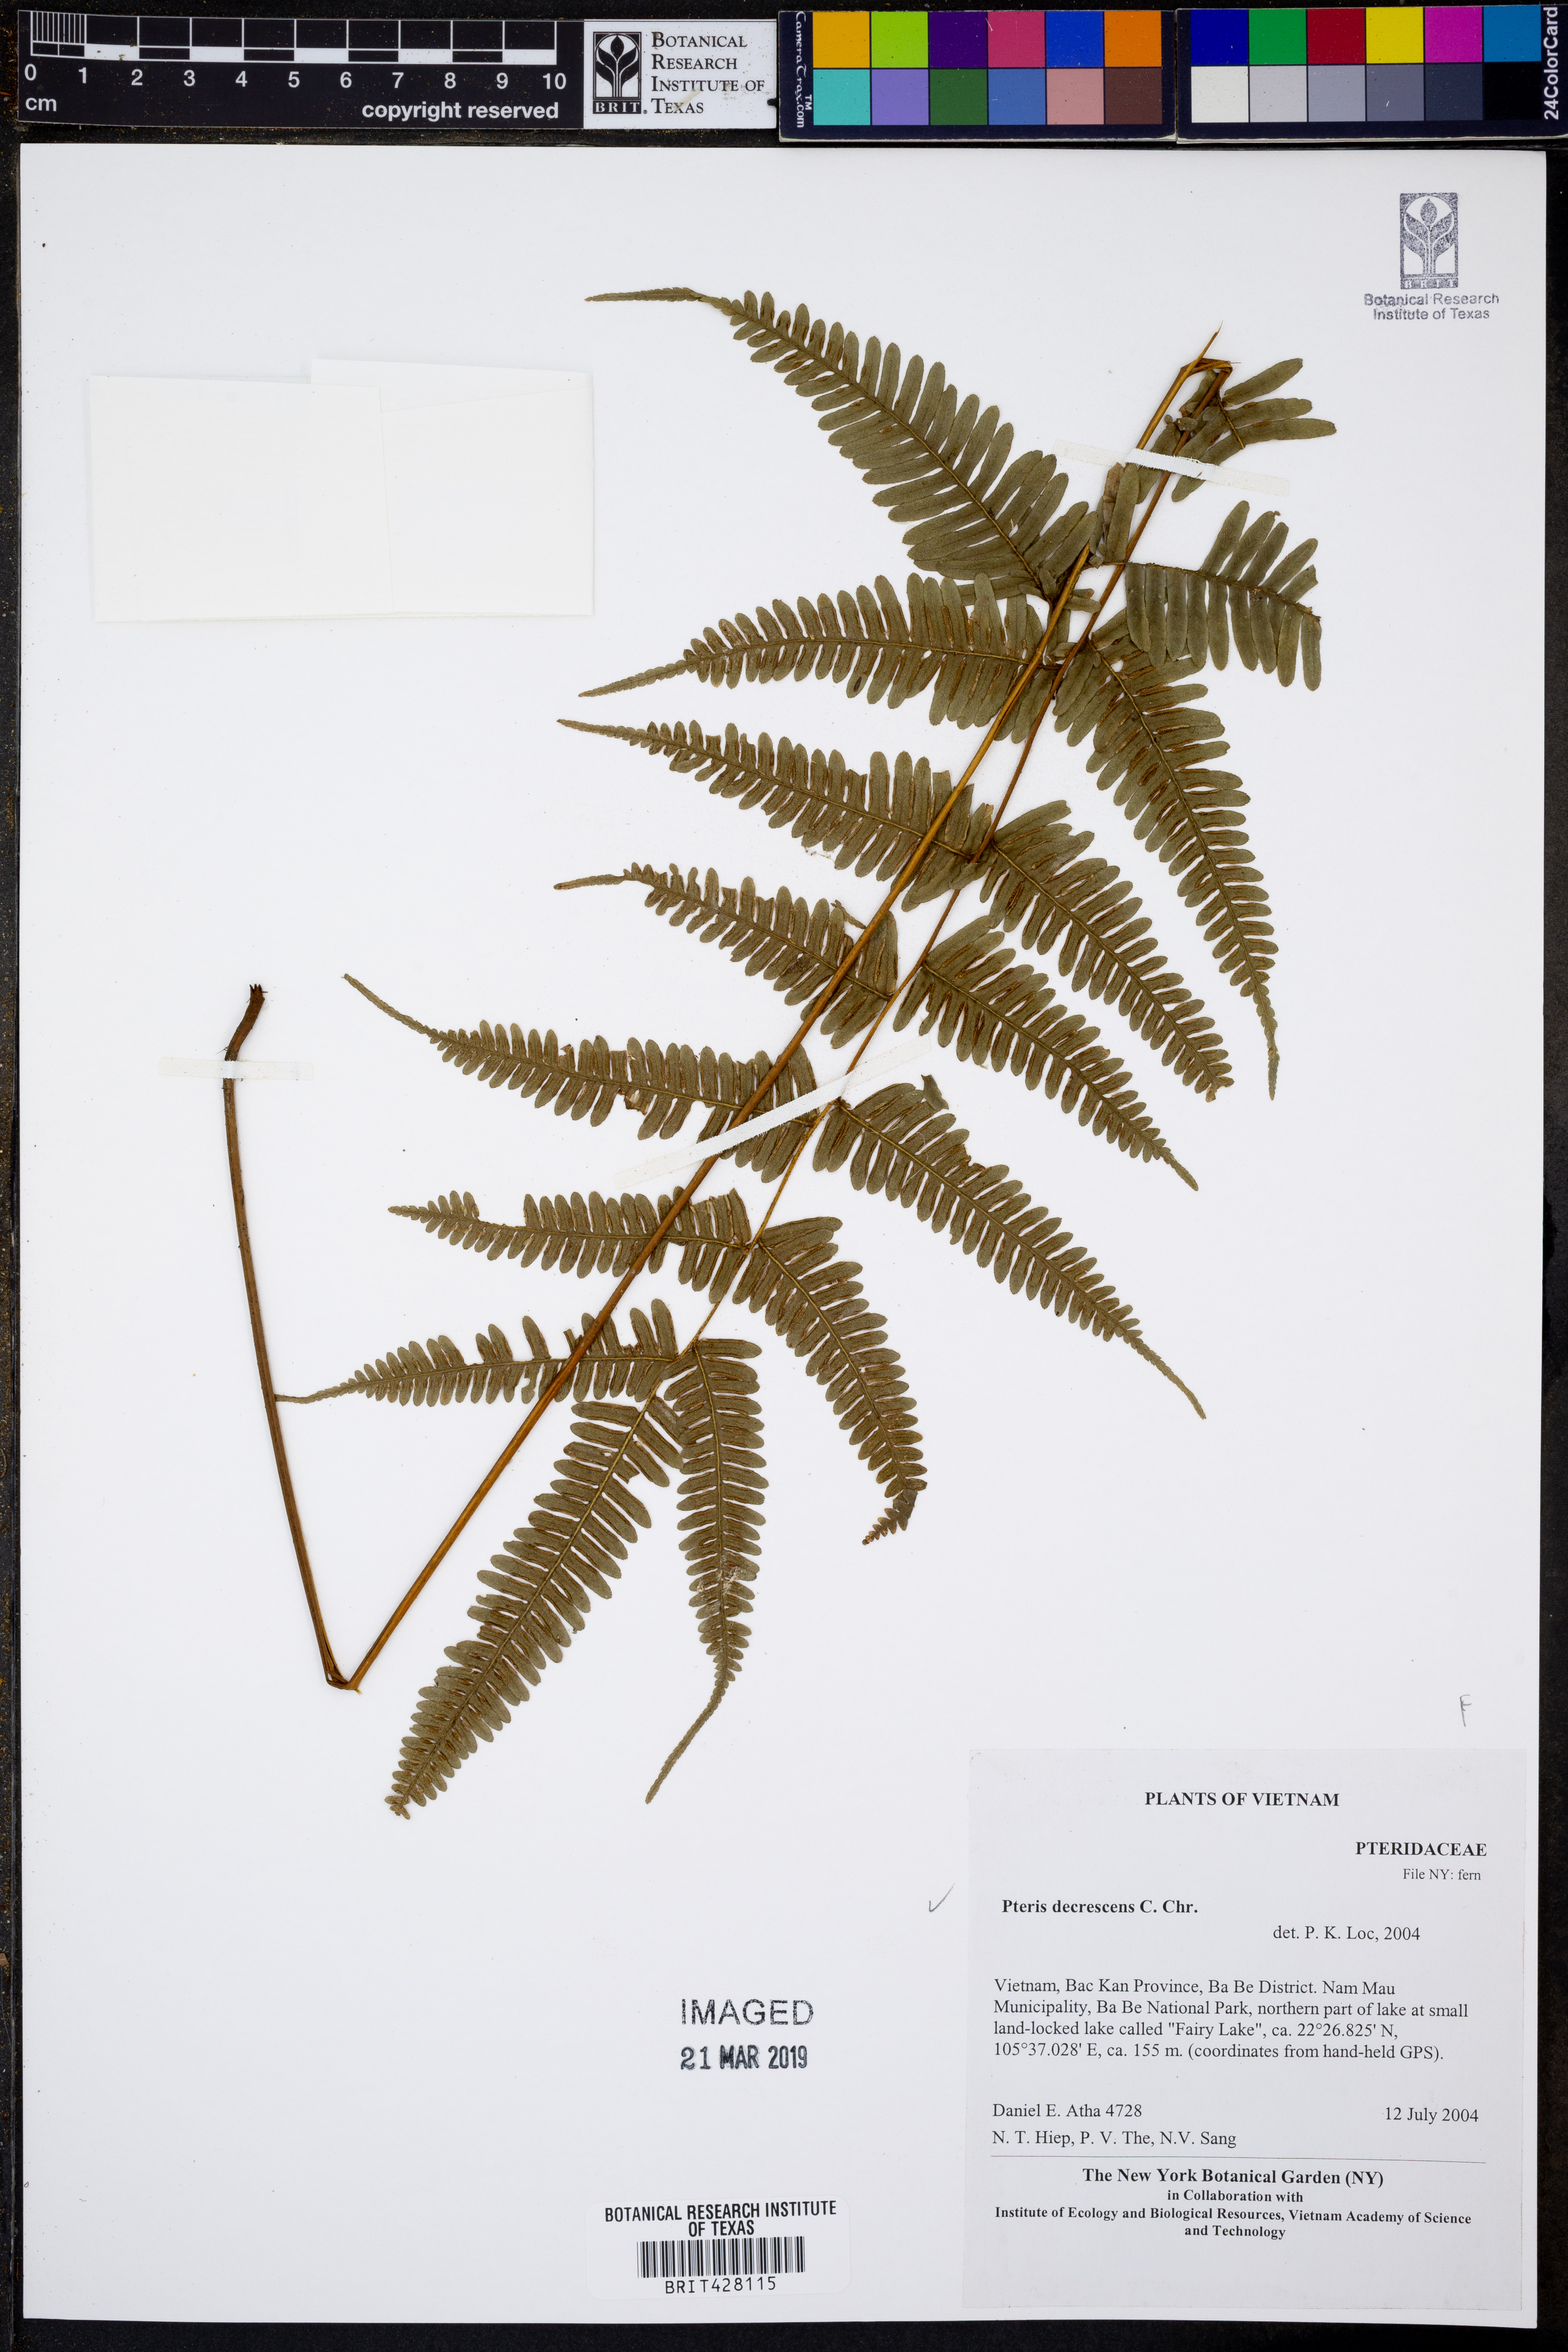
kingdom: Plantae
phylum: Tracheophyta
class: Polypodiopsida
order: Polypodiales
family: Pteridaceae
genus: Pteris
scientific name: Pteris decrescens
